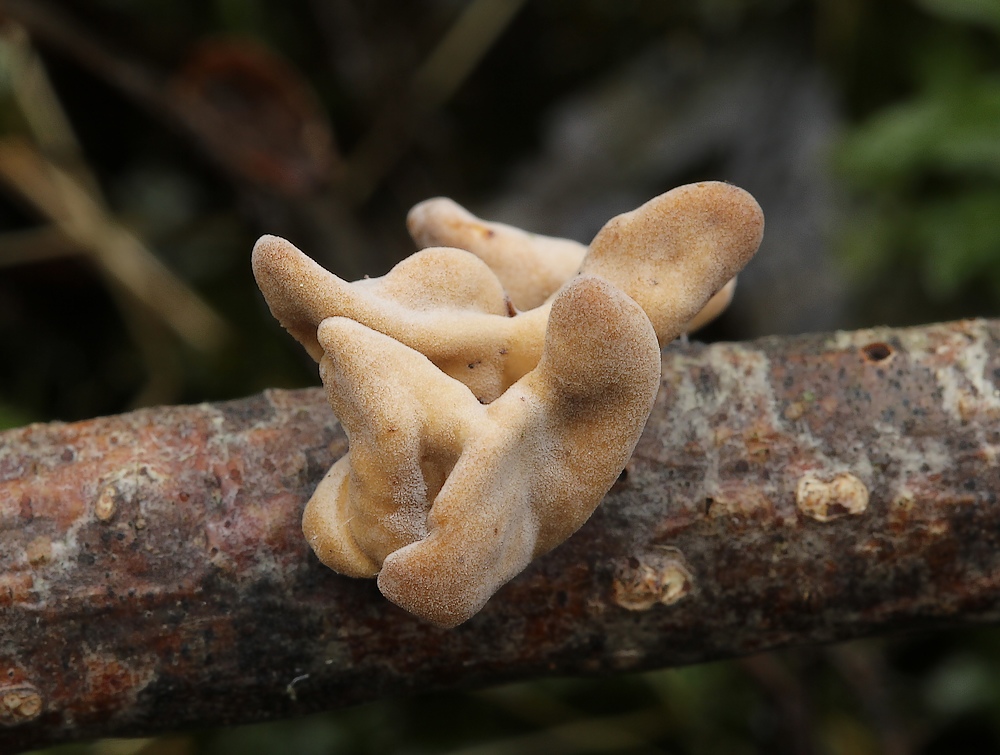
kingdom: Fungi
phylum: Basidiomycota
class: Agaricomycetes
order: Agaricales
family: Typhulaceae
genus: Typhula
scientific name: Typhula contorta
